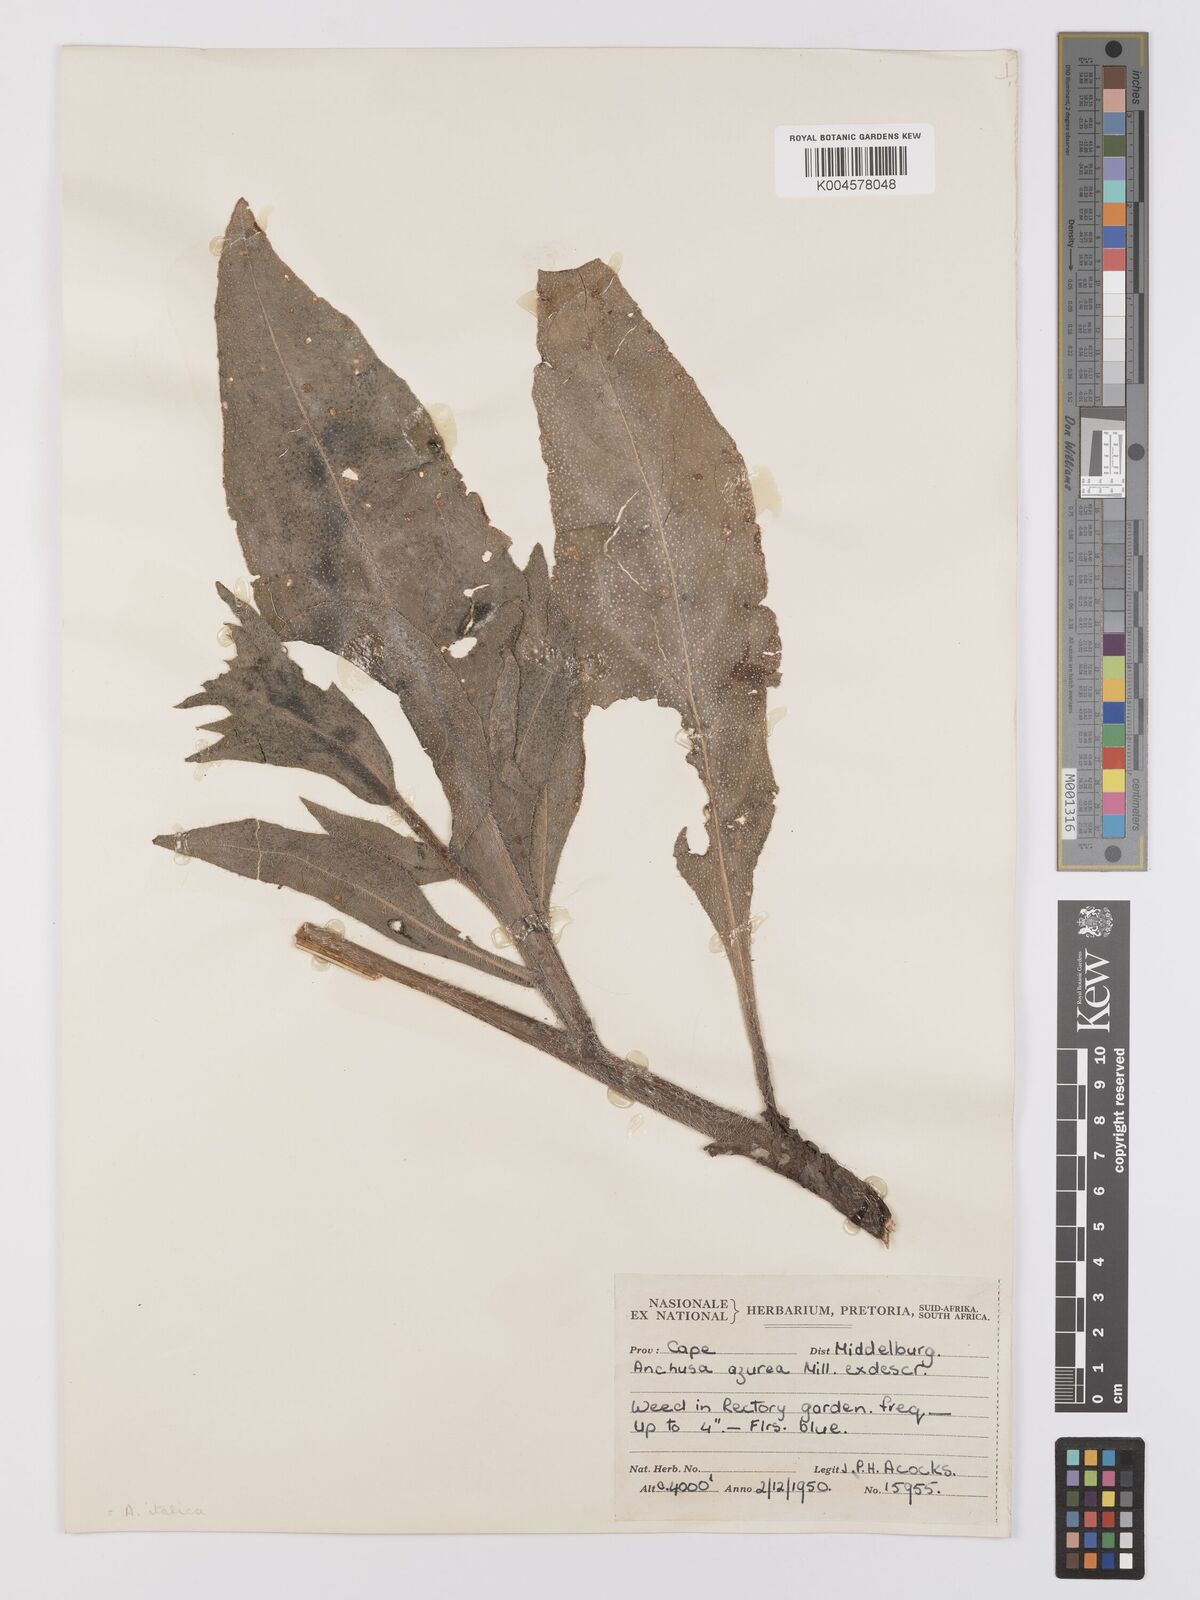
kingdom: Plantae
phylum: Tracheophyta
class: Magnoliopsida
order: Boraginales
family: Boraginaceae
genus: Anchusa
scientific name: Anchusa azurea
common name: Garden anchusa
